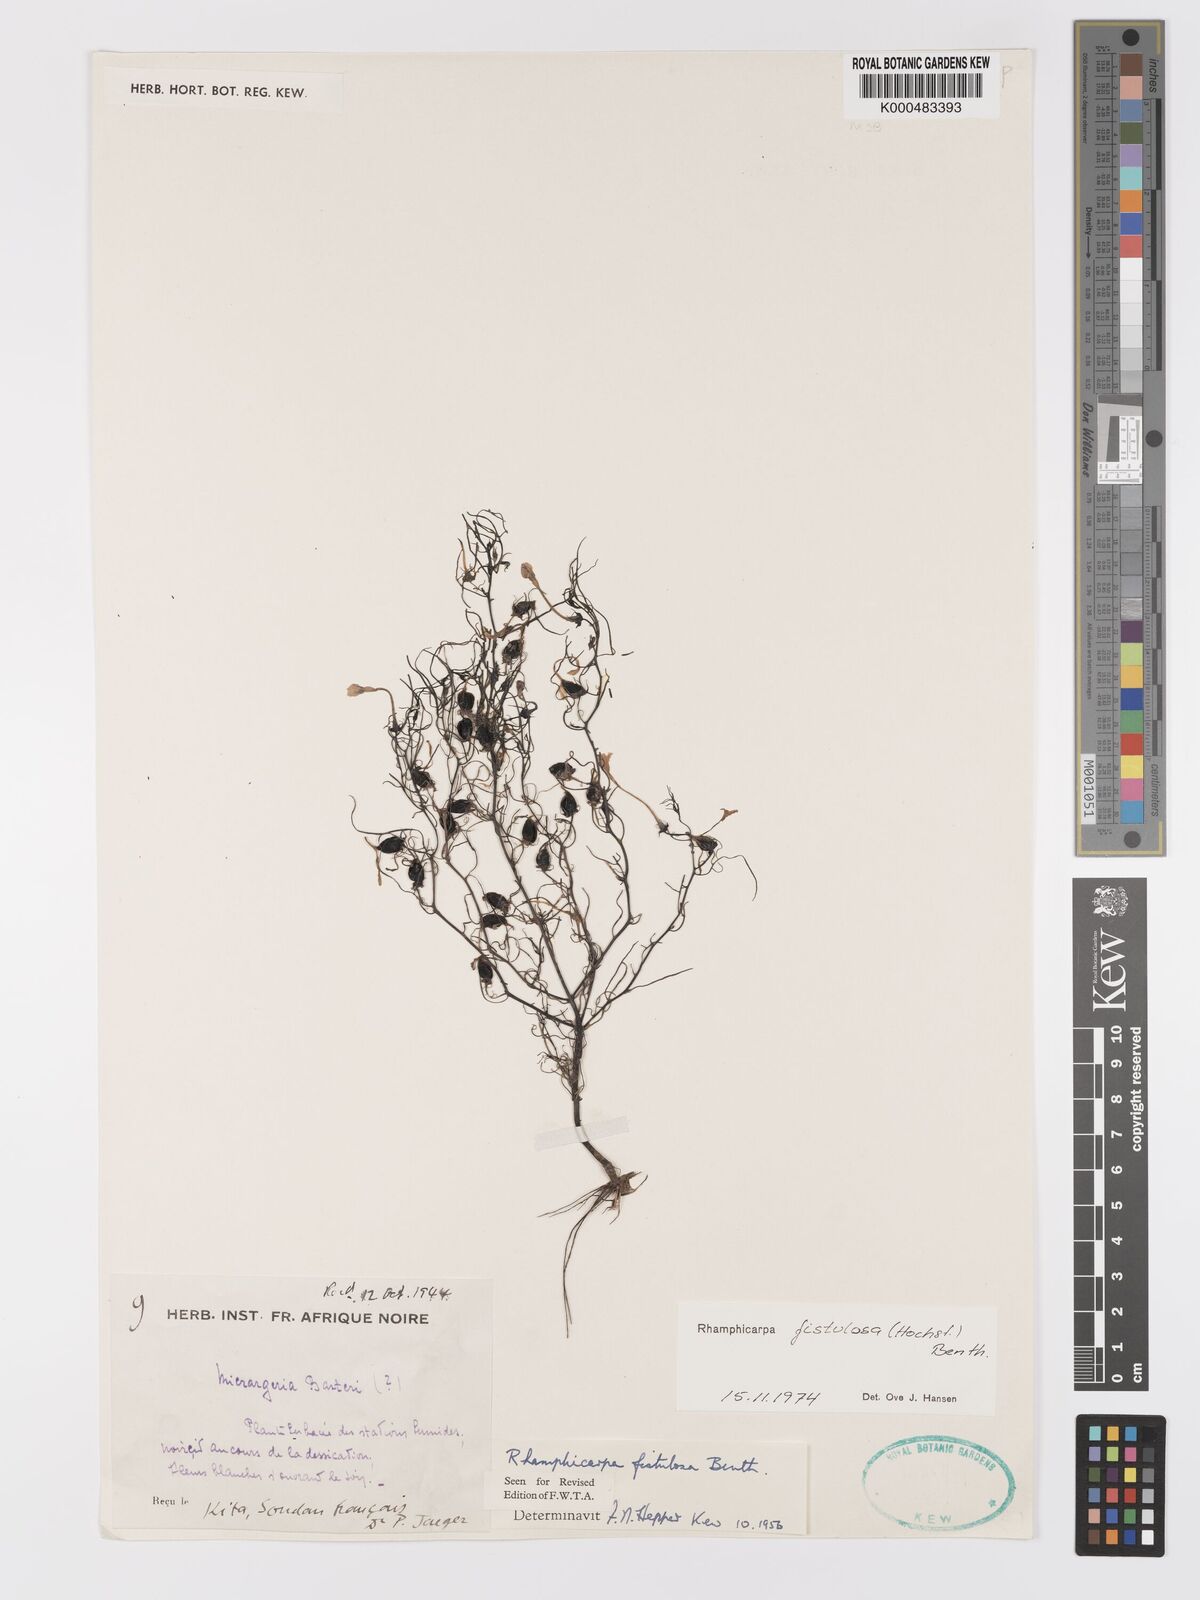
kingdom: Plantae
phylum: Tracheophyta
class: Magnoliopsida
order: Lamiales
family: Orobanchaceae
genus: Rhamphicarpa
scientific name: Rhamphicarpa fistulosa
